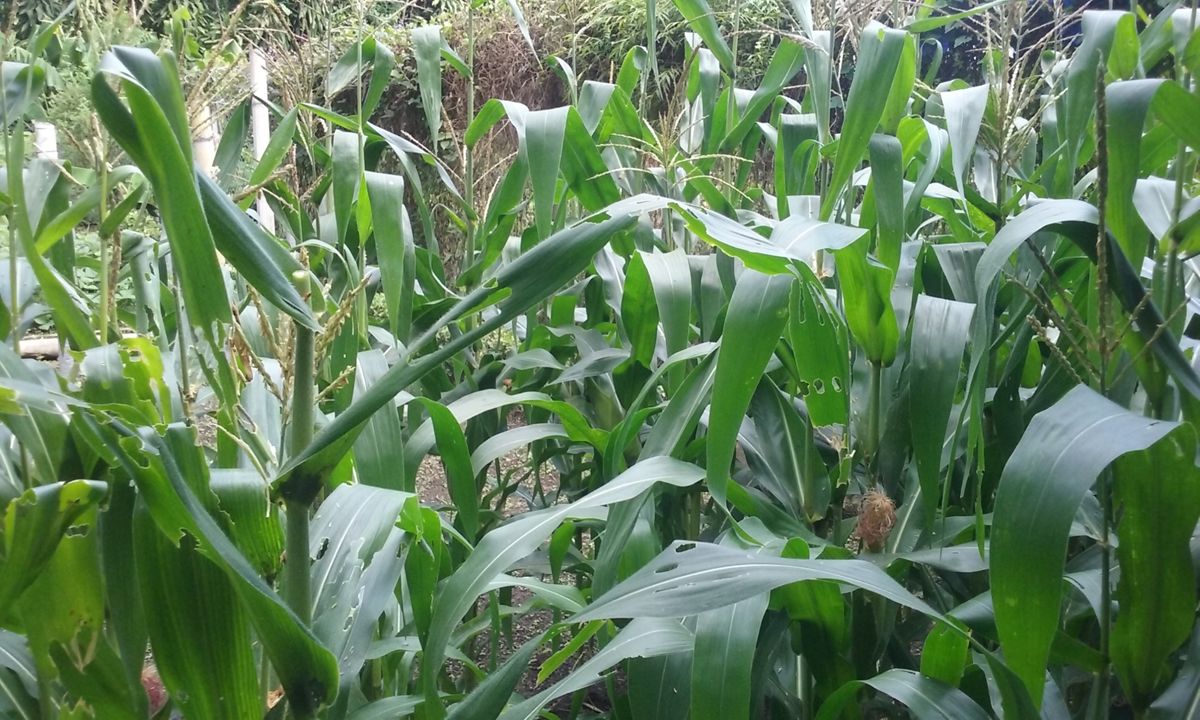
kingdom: Plantae
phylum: Tracheophyta
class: Liliopsida
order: Poales
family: Poaceae
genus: Zea
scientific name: Zea mays
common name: Maize
